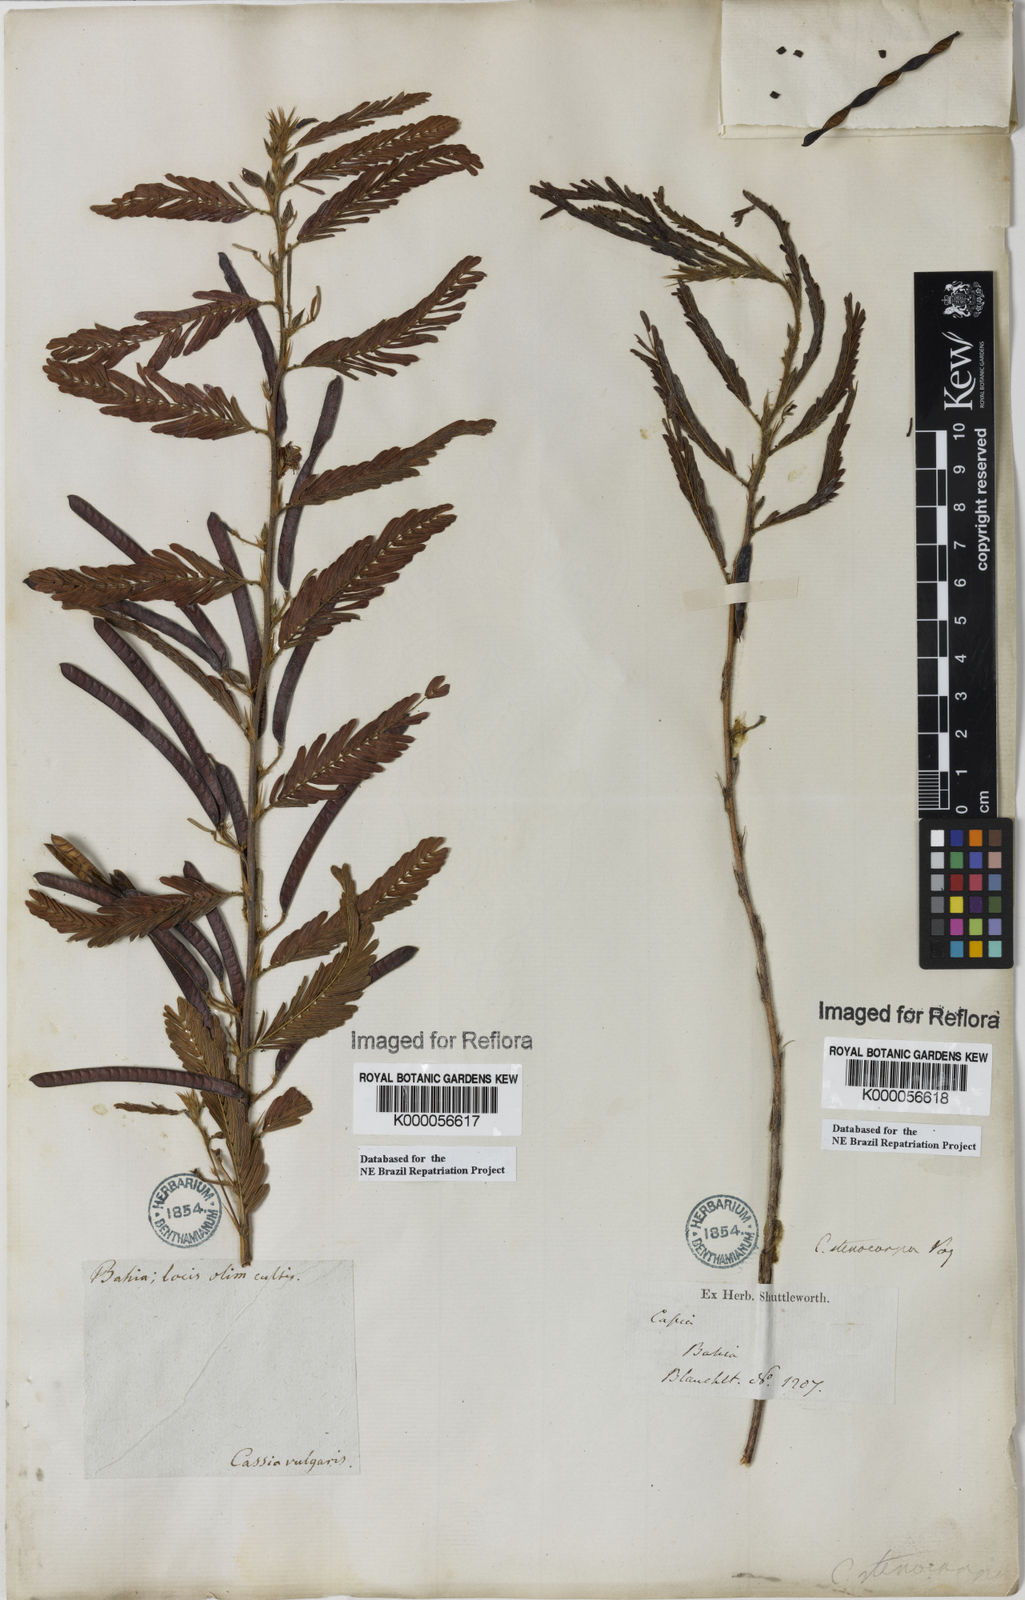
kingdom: Plantae
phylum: Tracheophyta
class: Magnoliopsida
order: Fabales
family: Fabaceae
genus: Chamaecrista
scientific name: Chamaecrista nictitans
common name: Sensitive cassia
